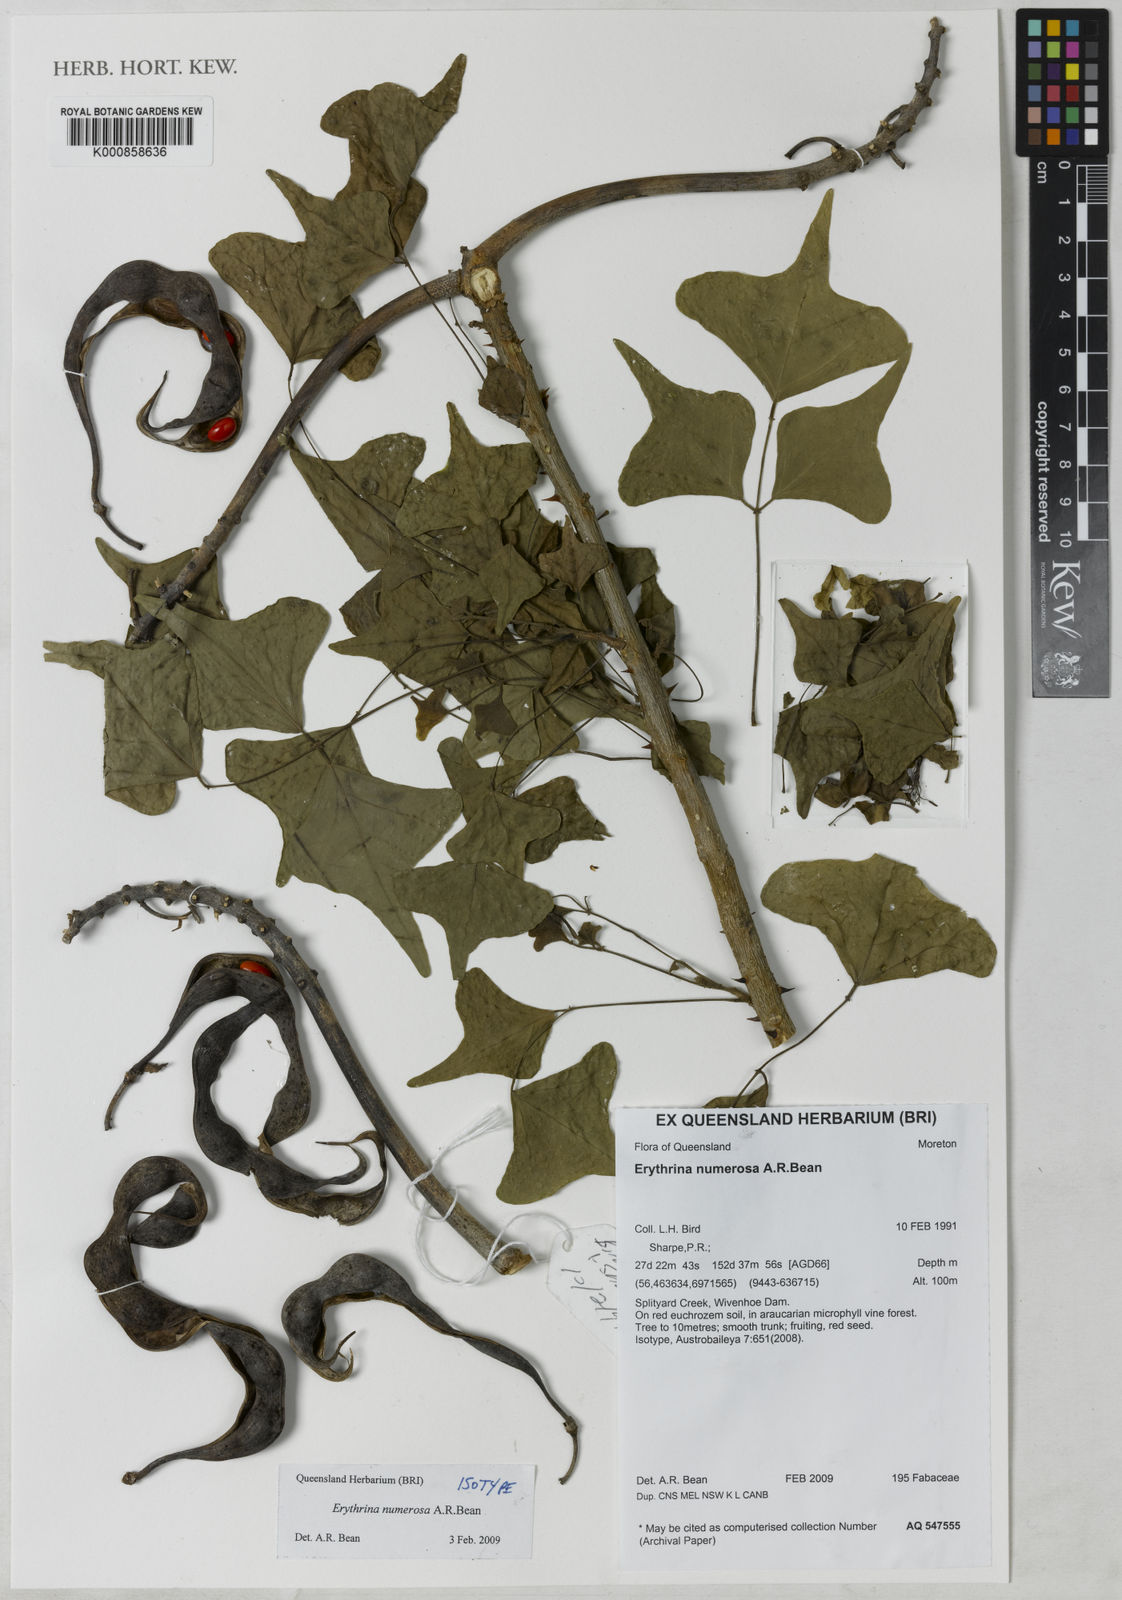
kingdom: Plantae
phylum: Tracheophyta
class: Magnoliopsida
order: Fabales
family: Fabaceae
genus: Erythrina
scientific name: Erythrina numerosa
